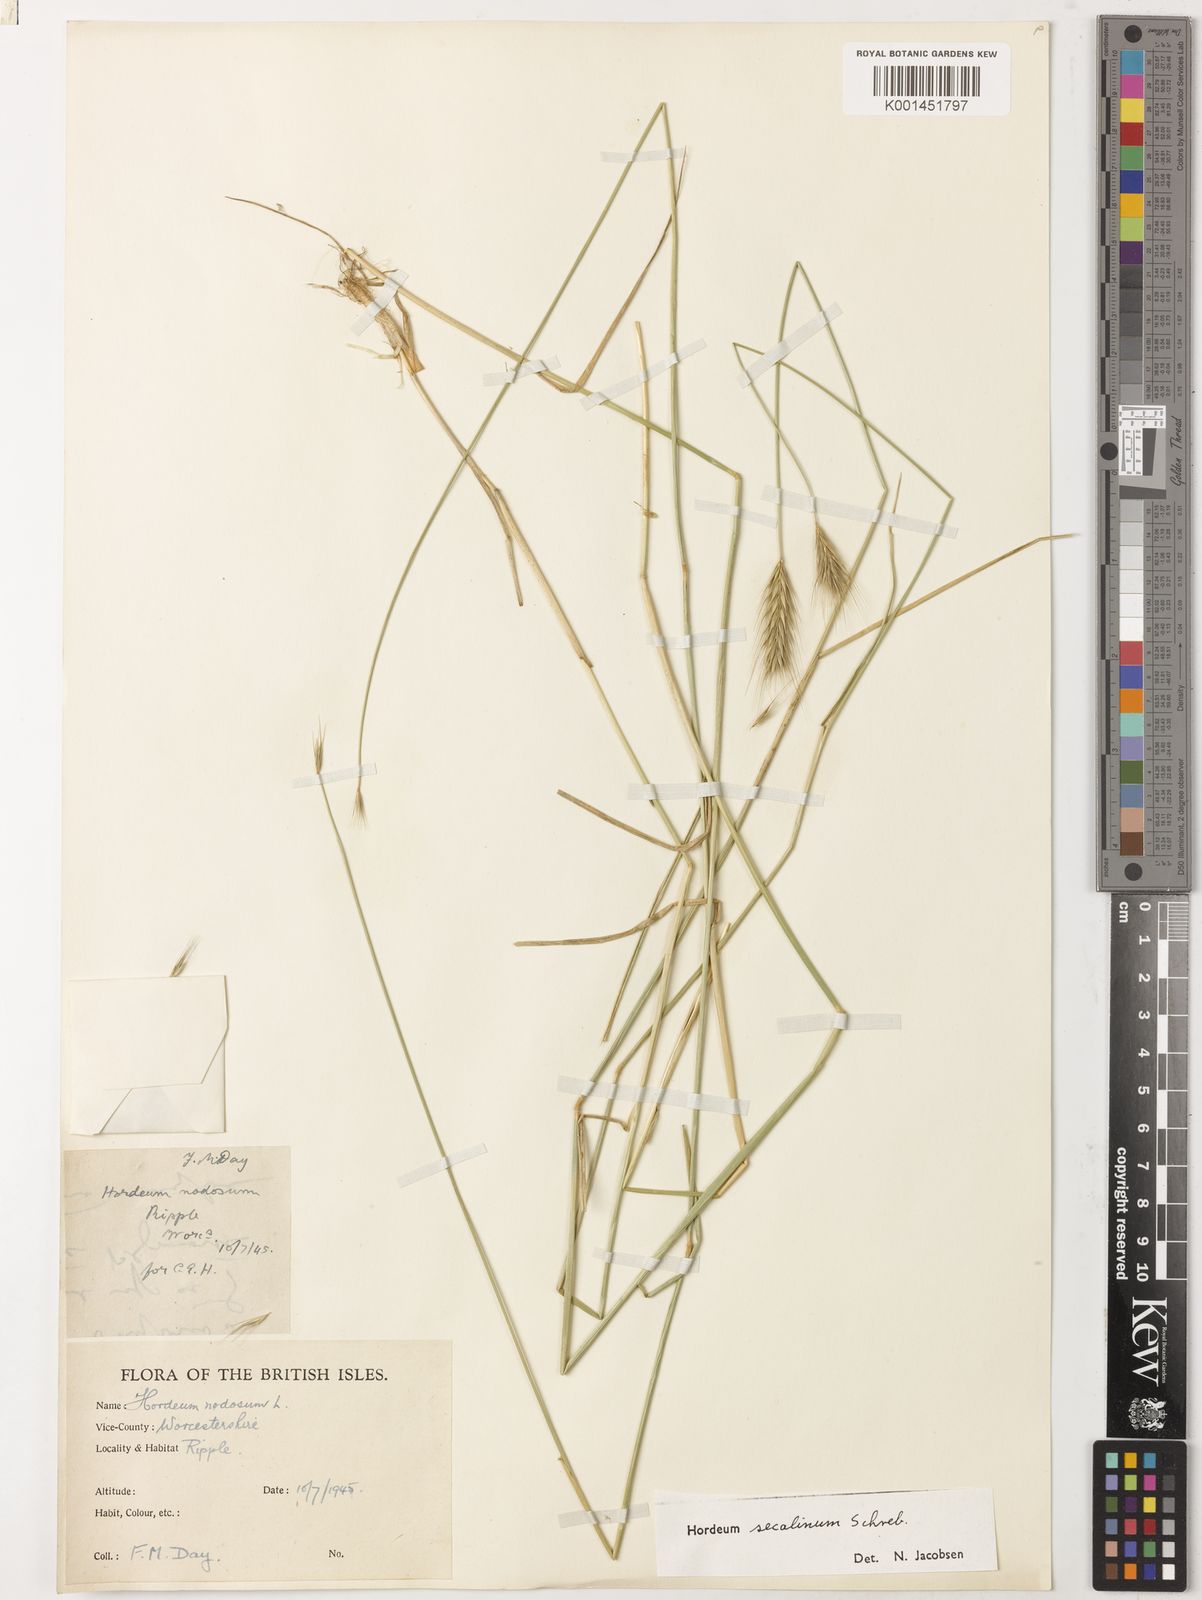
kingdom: Plantae
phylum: Tracheophyta
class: Liliopsida
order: Poales
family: Poaceae
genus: Hordeum
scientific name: Hordeum secalinum
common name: Meadow barley
